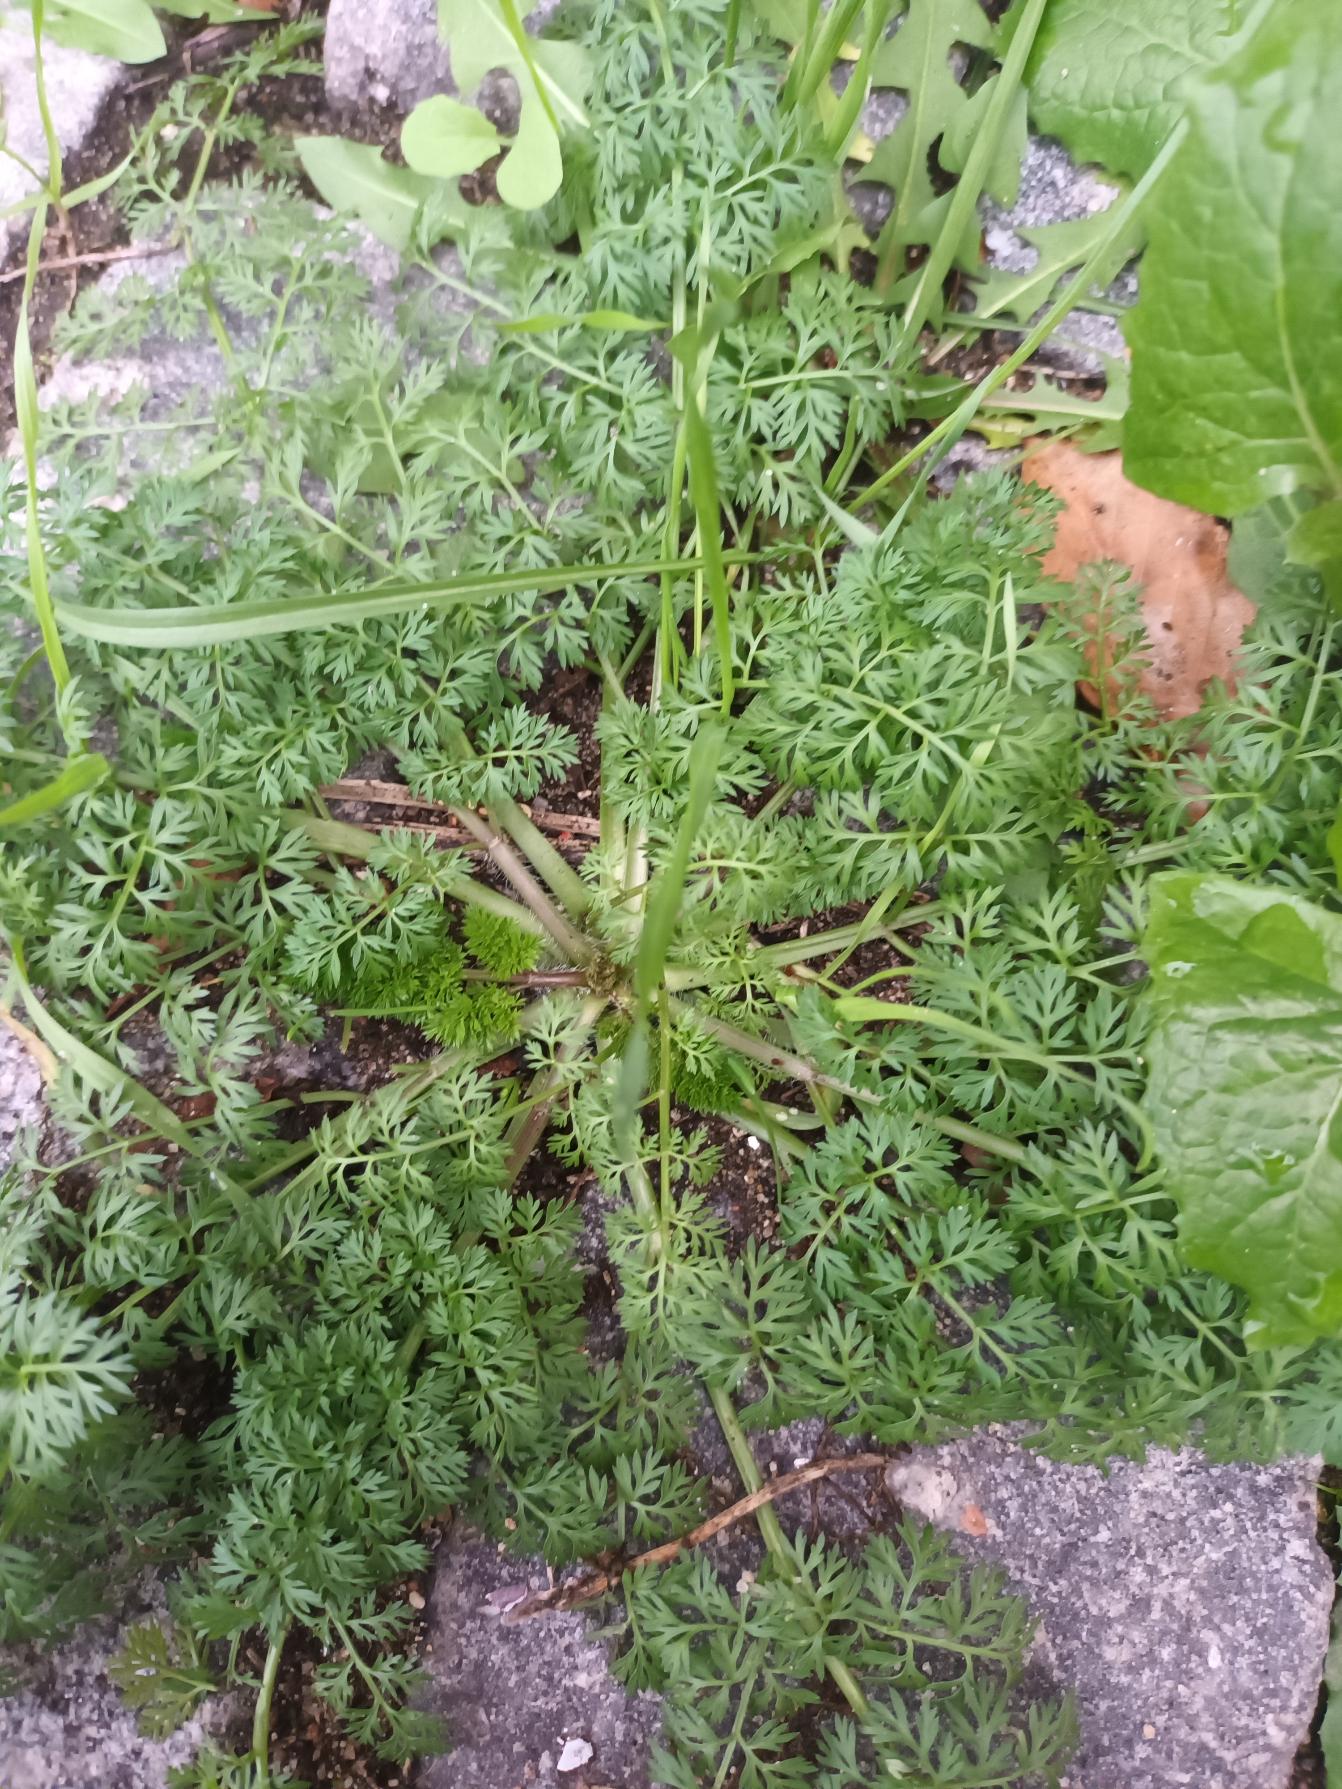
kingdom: Plantae
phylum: Tracheophyta
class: Magnoliopsida
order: Apiales
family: Apiaceae
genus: Daucus
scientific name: Daucus carota
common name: Gulerod
